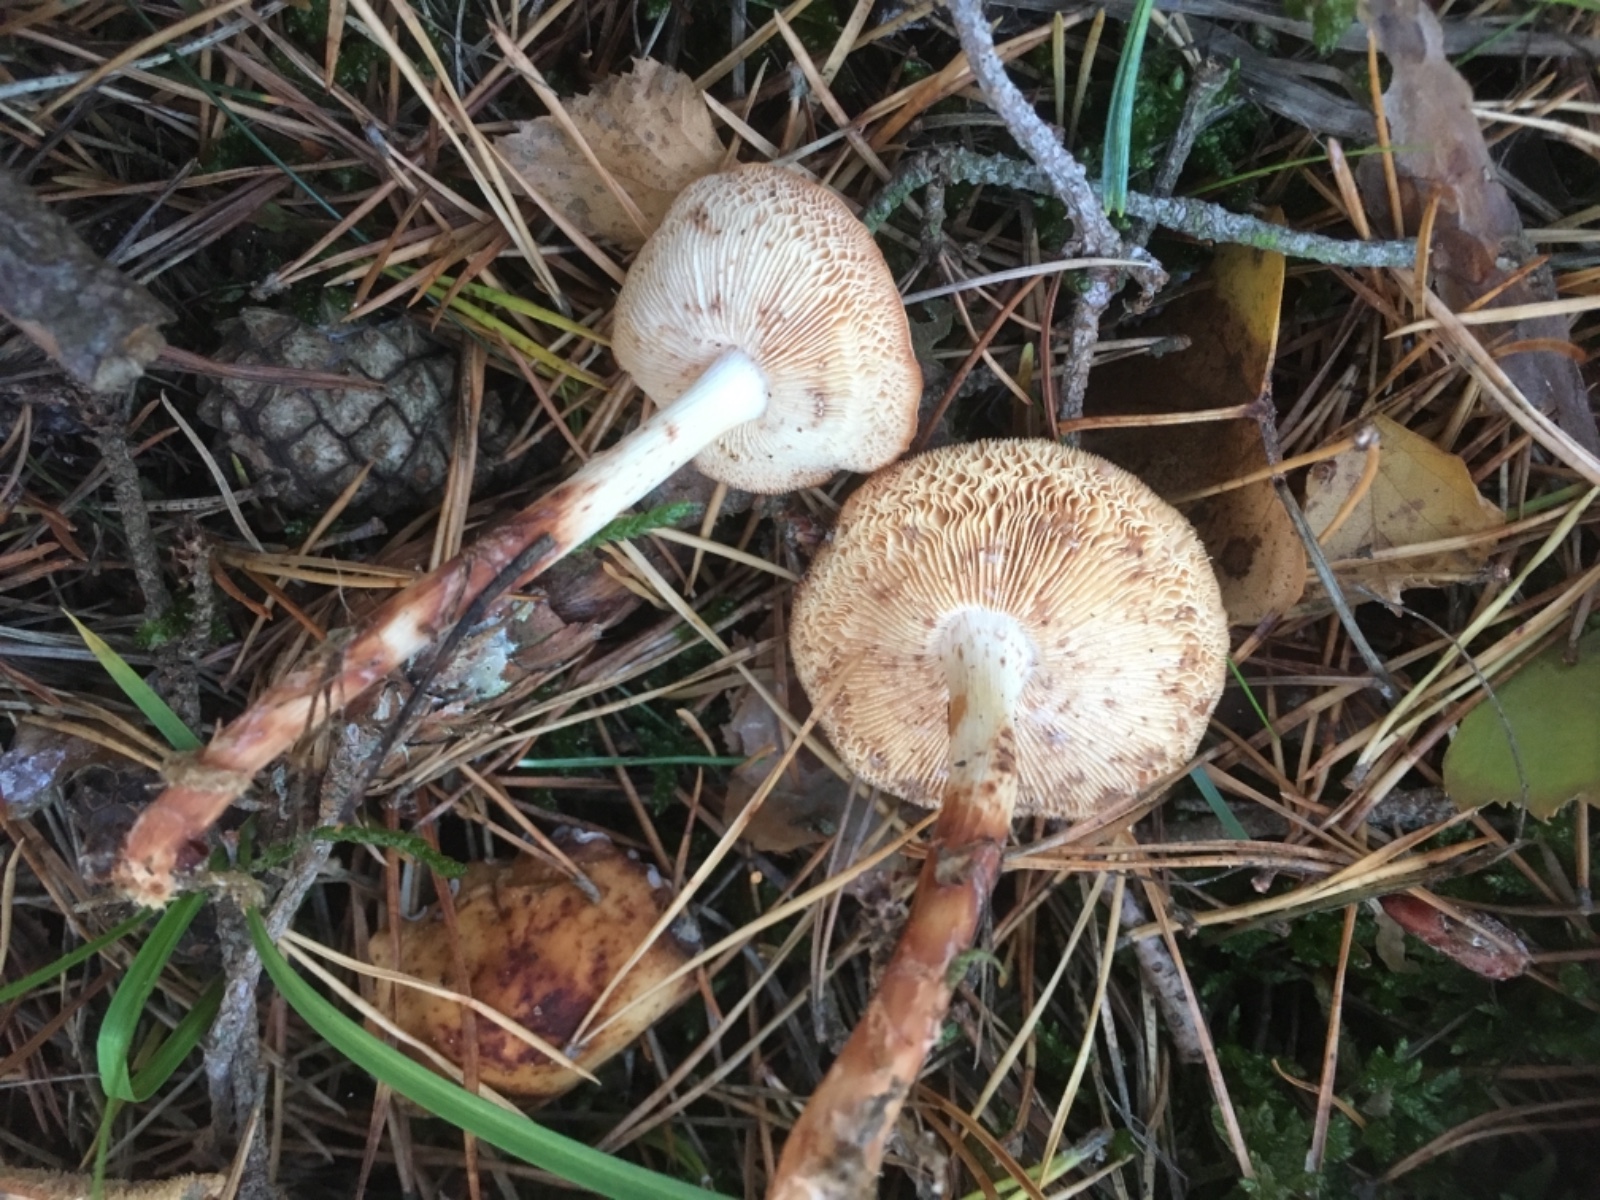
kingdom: Fungi
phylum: Basidiomycota
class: Agaricomycetes
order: Agaricales
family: Omphalotaceae
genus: Rhodocollybia
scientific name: Rhodocollybia maculata
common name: plettet fladhat
